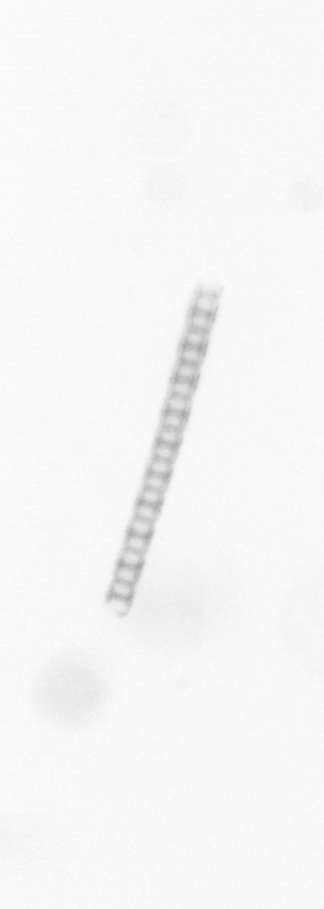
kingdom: Chromista
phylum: Ochrophyta
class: Bacillariophyceae
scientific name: Bacillariophyceae
